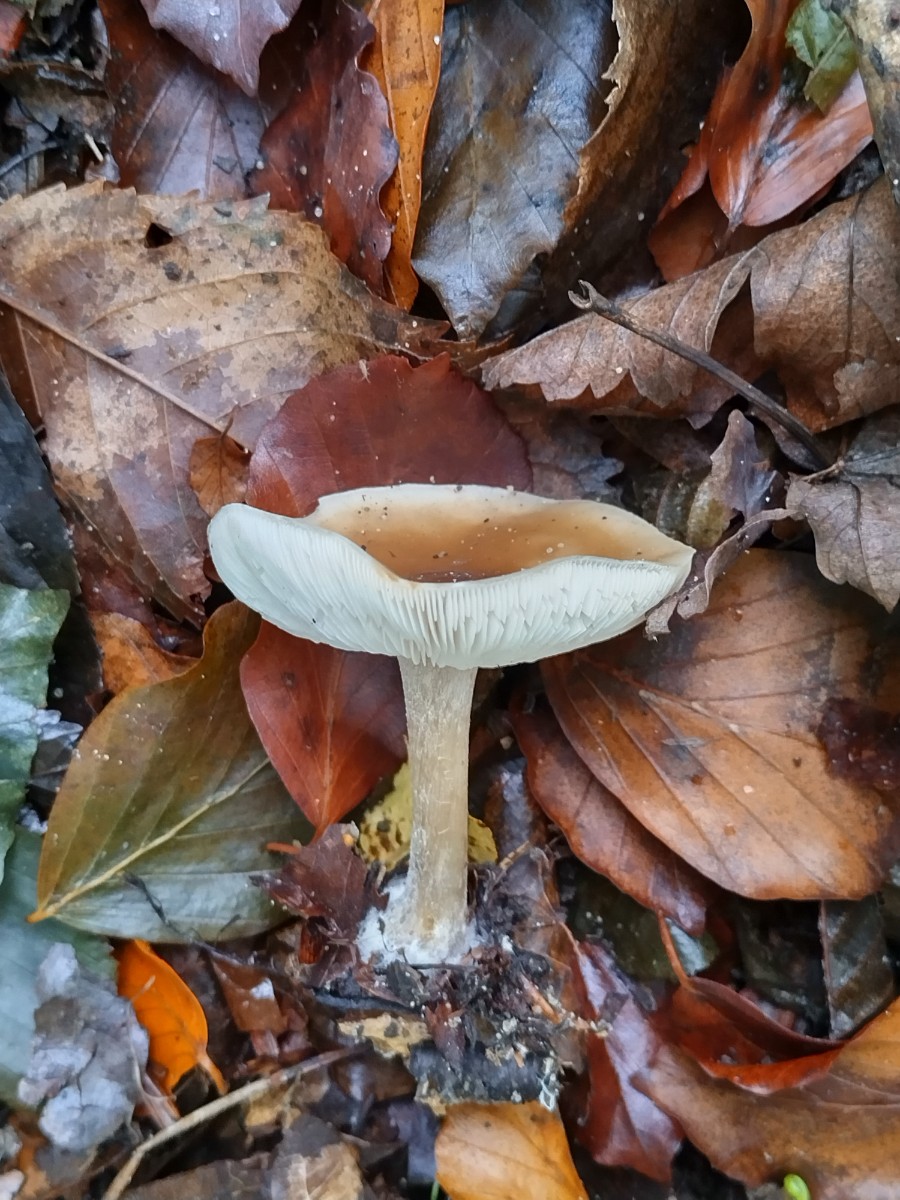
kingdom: Fungi
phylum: Basidiomycota
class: Agaricomycetes
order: Agaricales
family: Omphalotaceae
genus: Rhodocollybia
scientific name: Rhodocollybia asema
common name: horngrå fladhat
